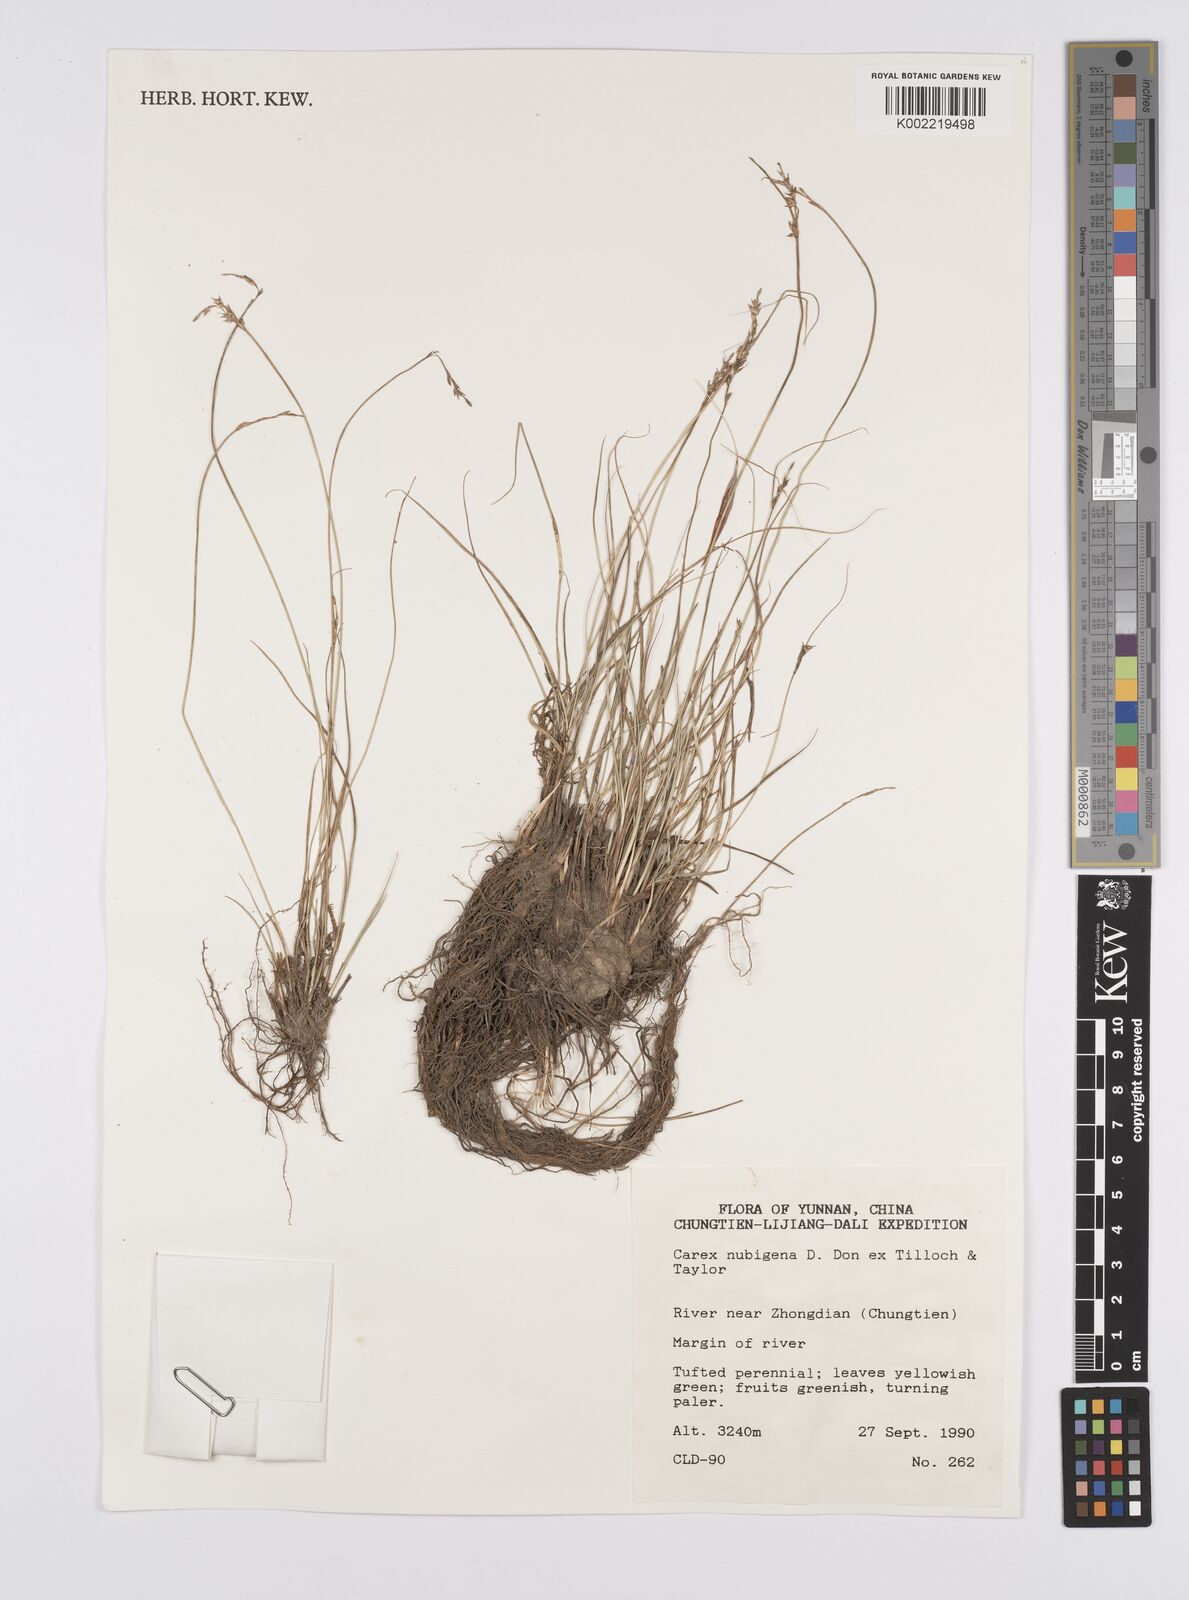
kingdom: Plantae
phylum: Tracheophyta
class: Liliopsida
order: Poales
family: Cyperaceae
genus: Carex
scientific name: Carex nubigena
